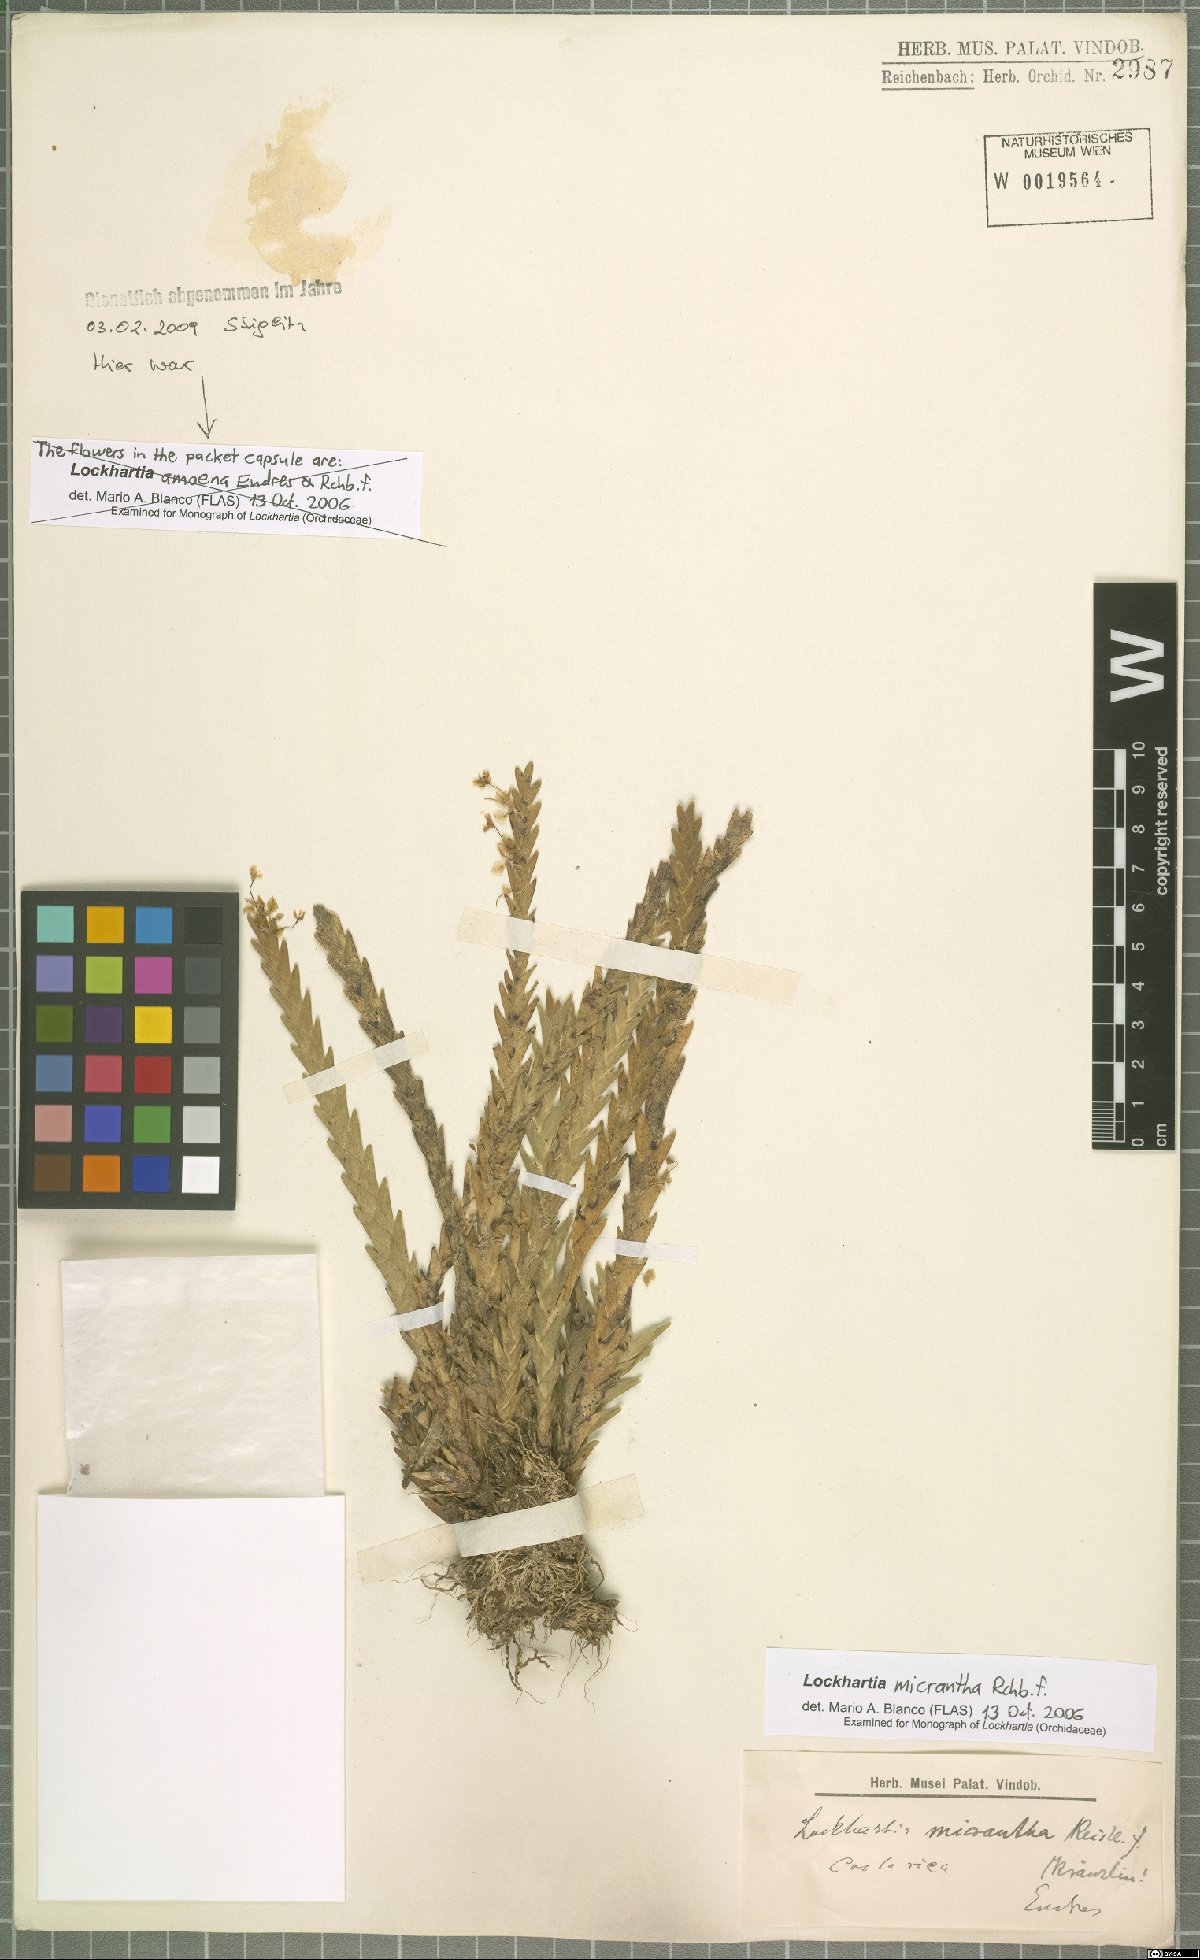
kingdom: Plantae
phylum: Tracheophyta
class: Liliopsida
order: Asparagales
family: Orchidaceae
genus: Lockhartia
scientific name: Lockhartia micrantha
